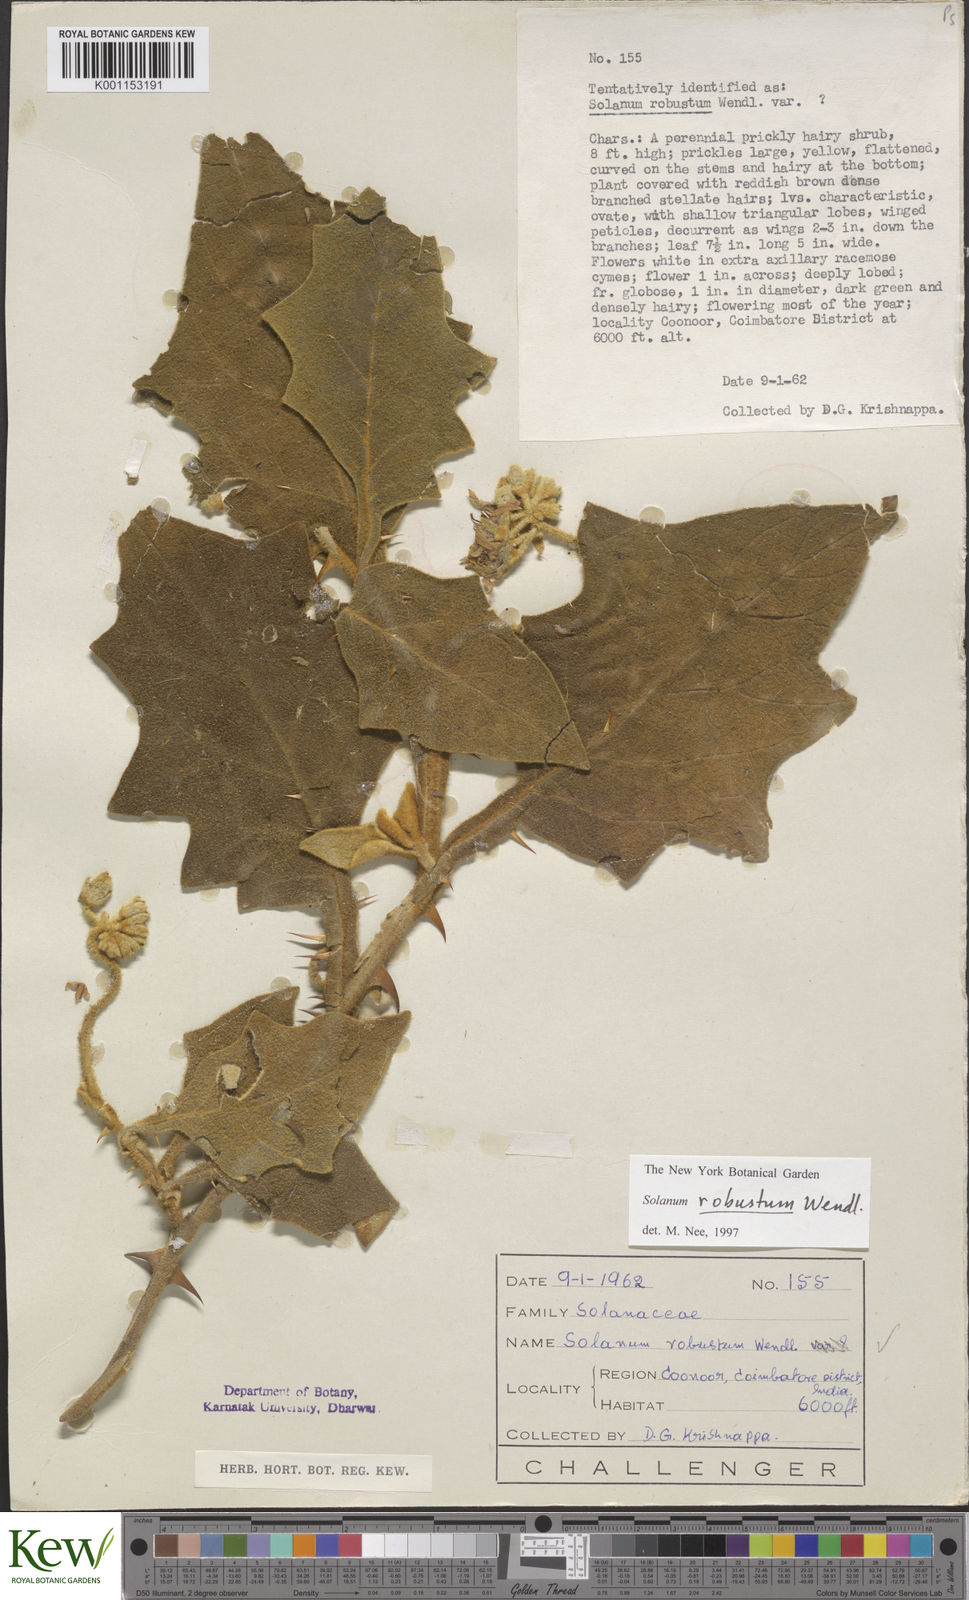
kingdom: Plantae
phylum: Tracheophyta
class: Magnoliopsida
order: Solanales
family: Solanaceae
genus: Solanum
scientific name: Solanum robustum
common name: Shrubby nightshade
